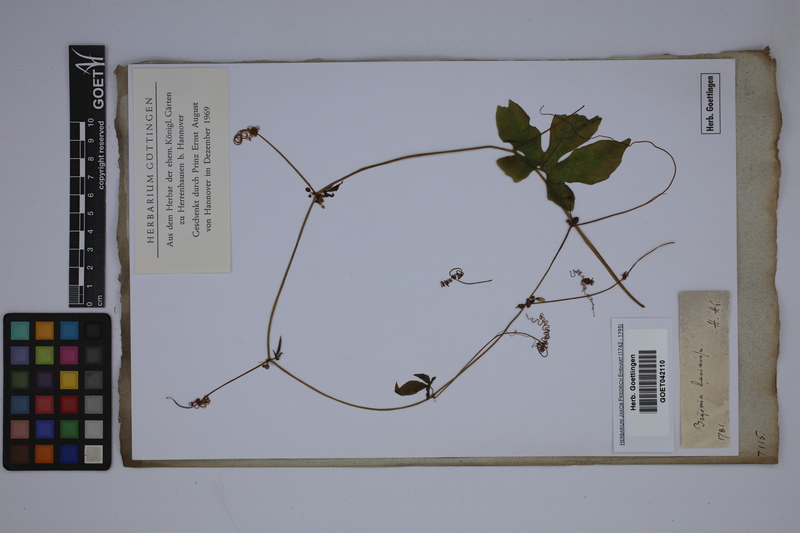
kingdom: Plantae
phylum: Tracheophyta
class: Magnoliopsida
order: Cucurbitales
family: Cucurbitaceae
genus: Diplocyclos
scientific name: Diplocyclos palmatus
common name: Striped-cucumber
